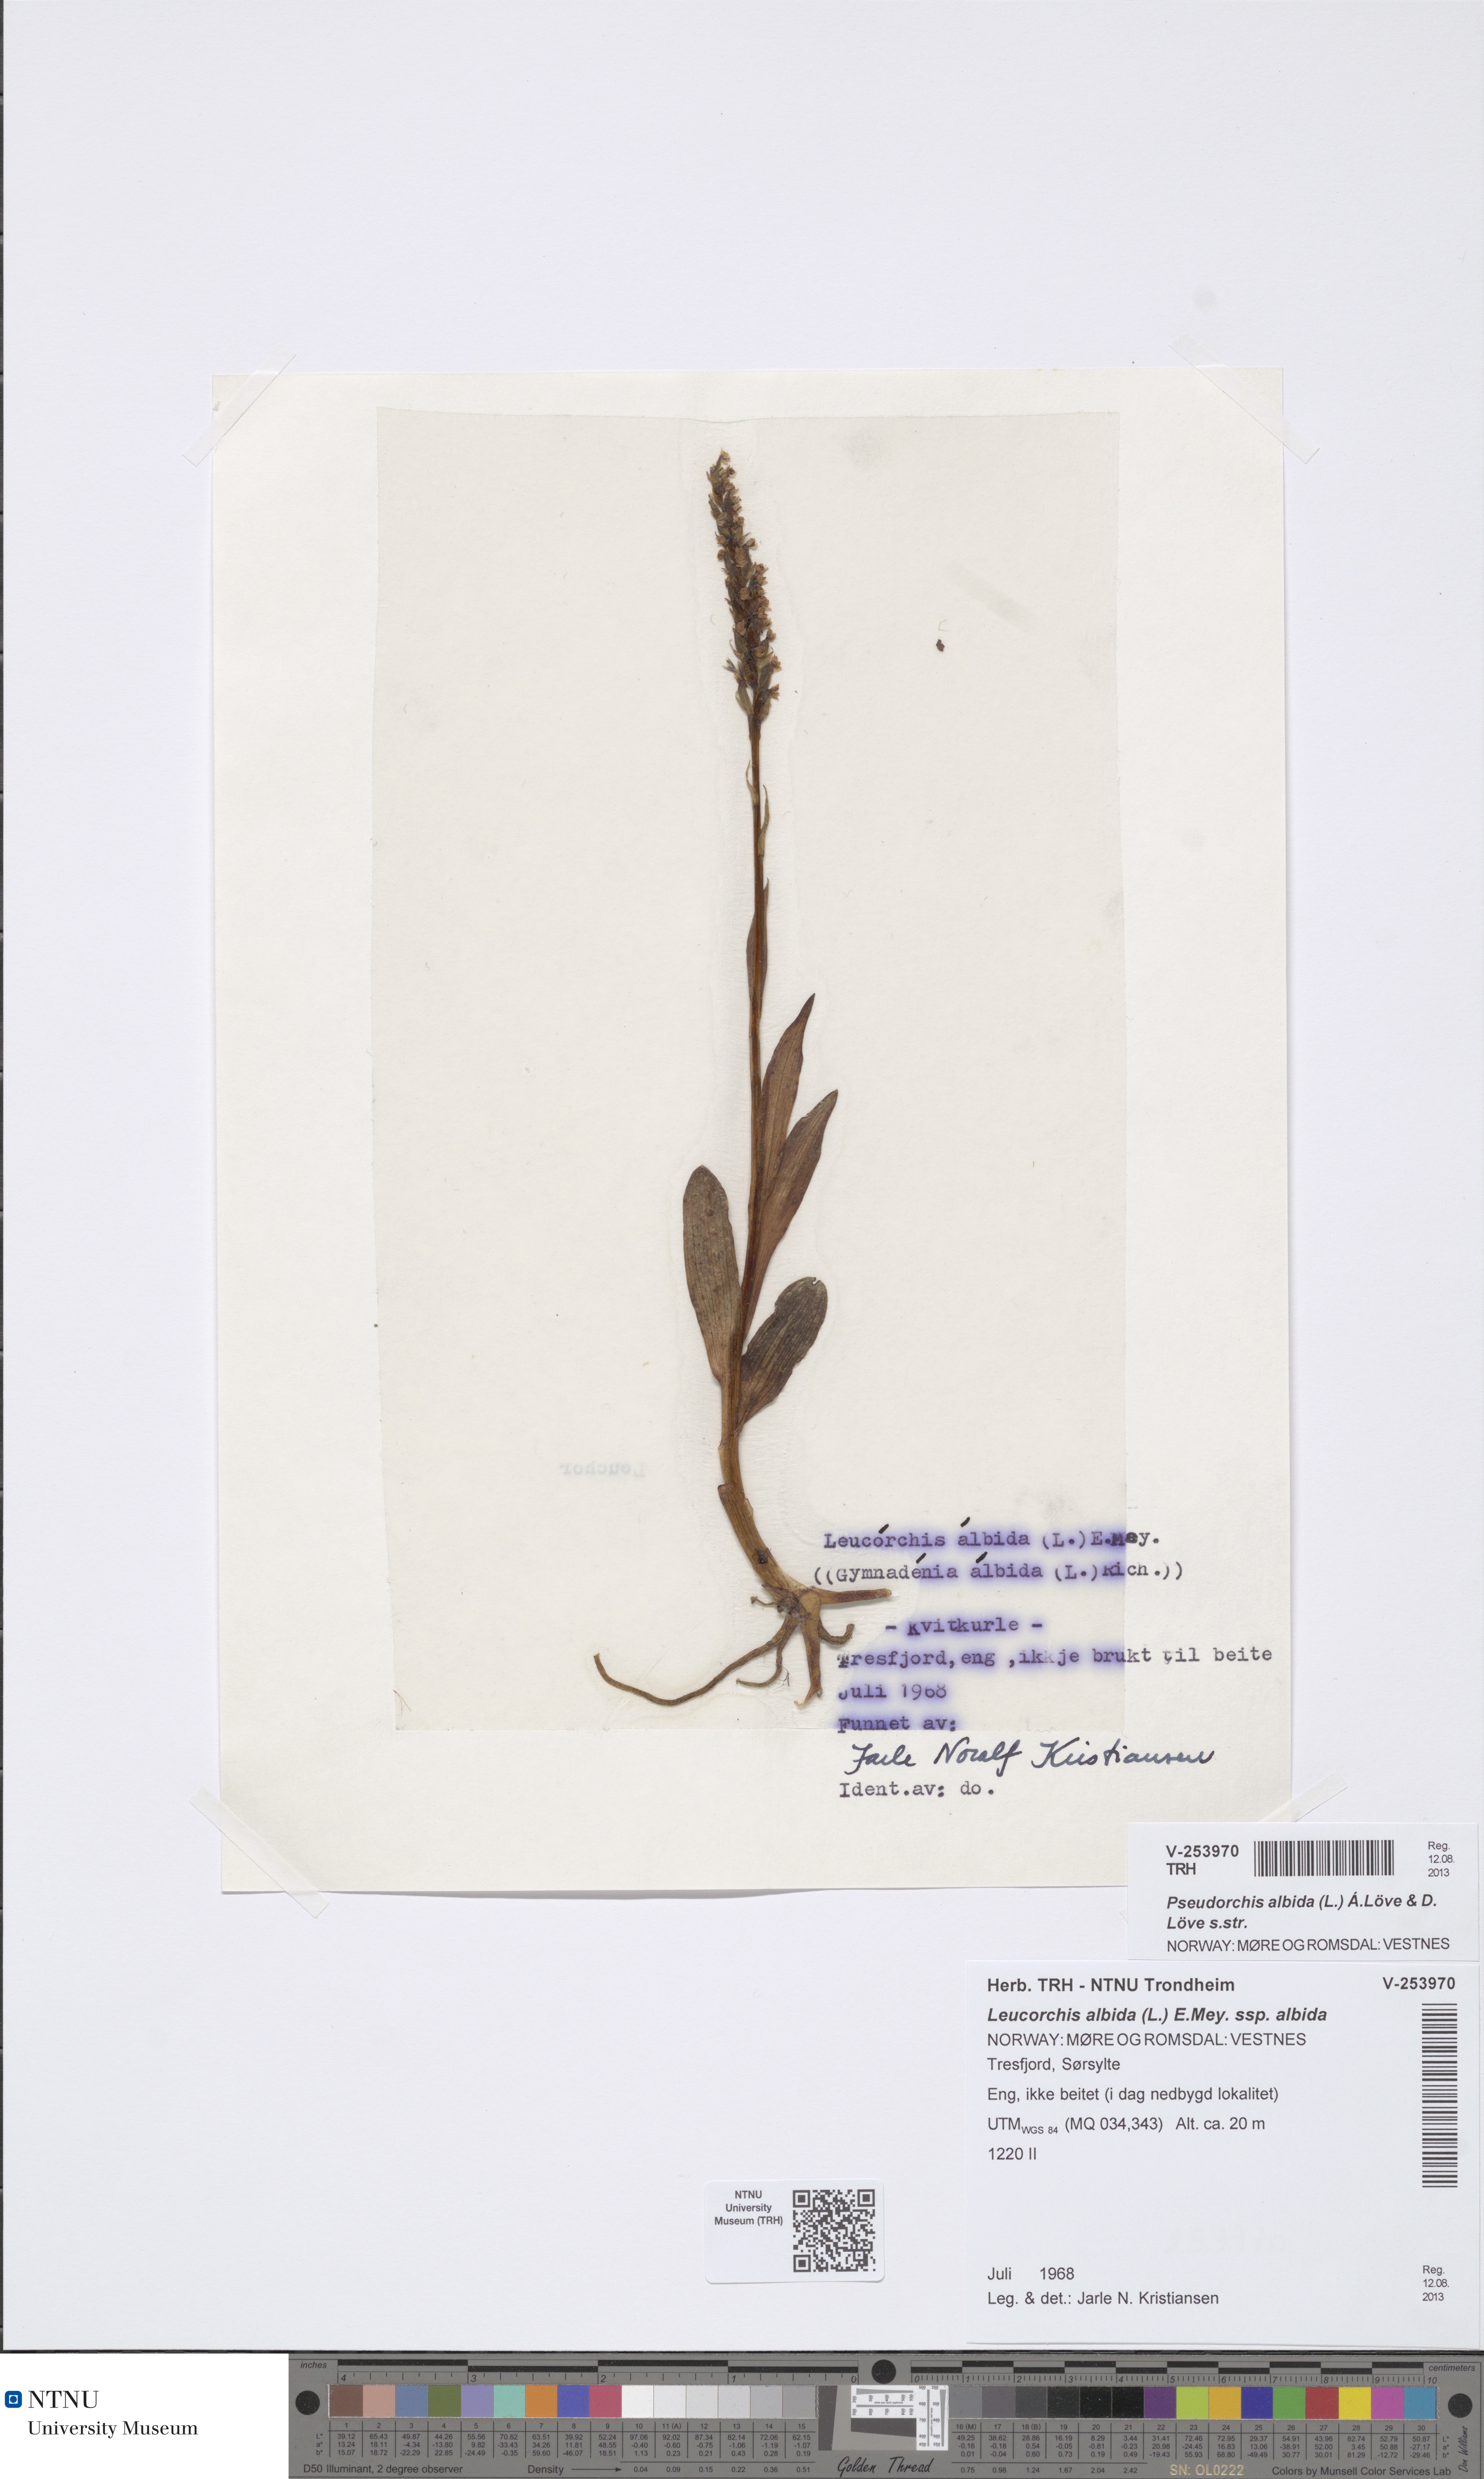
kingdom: Plantae
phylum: Tracheophyta
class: Liliopsida
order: Asparagales
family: Orchidaceae
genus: Pseudorchis
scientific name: Pseudorchis albida
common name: Small-white orchid
